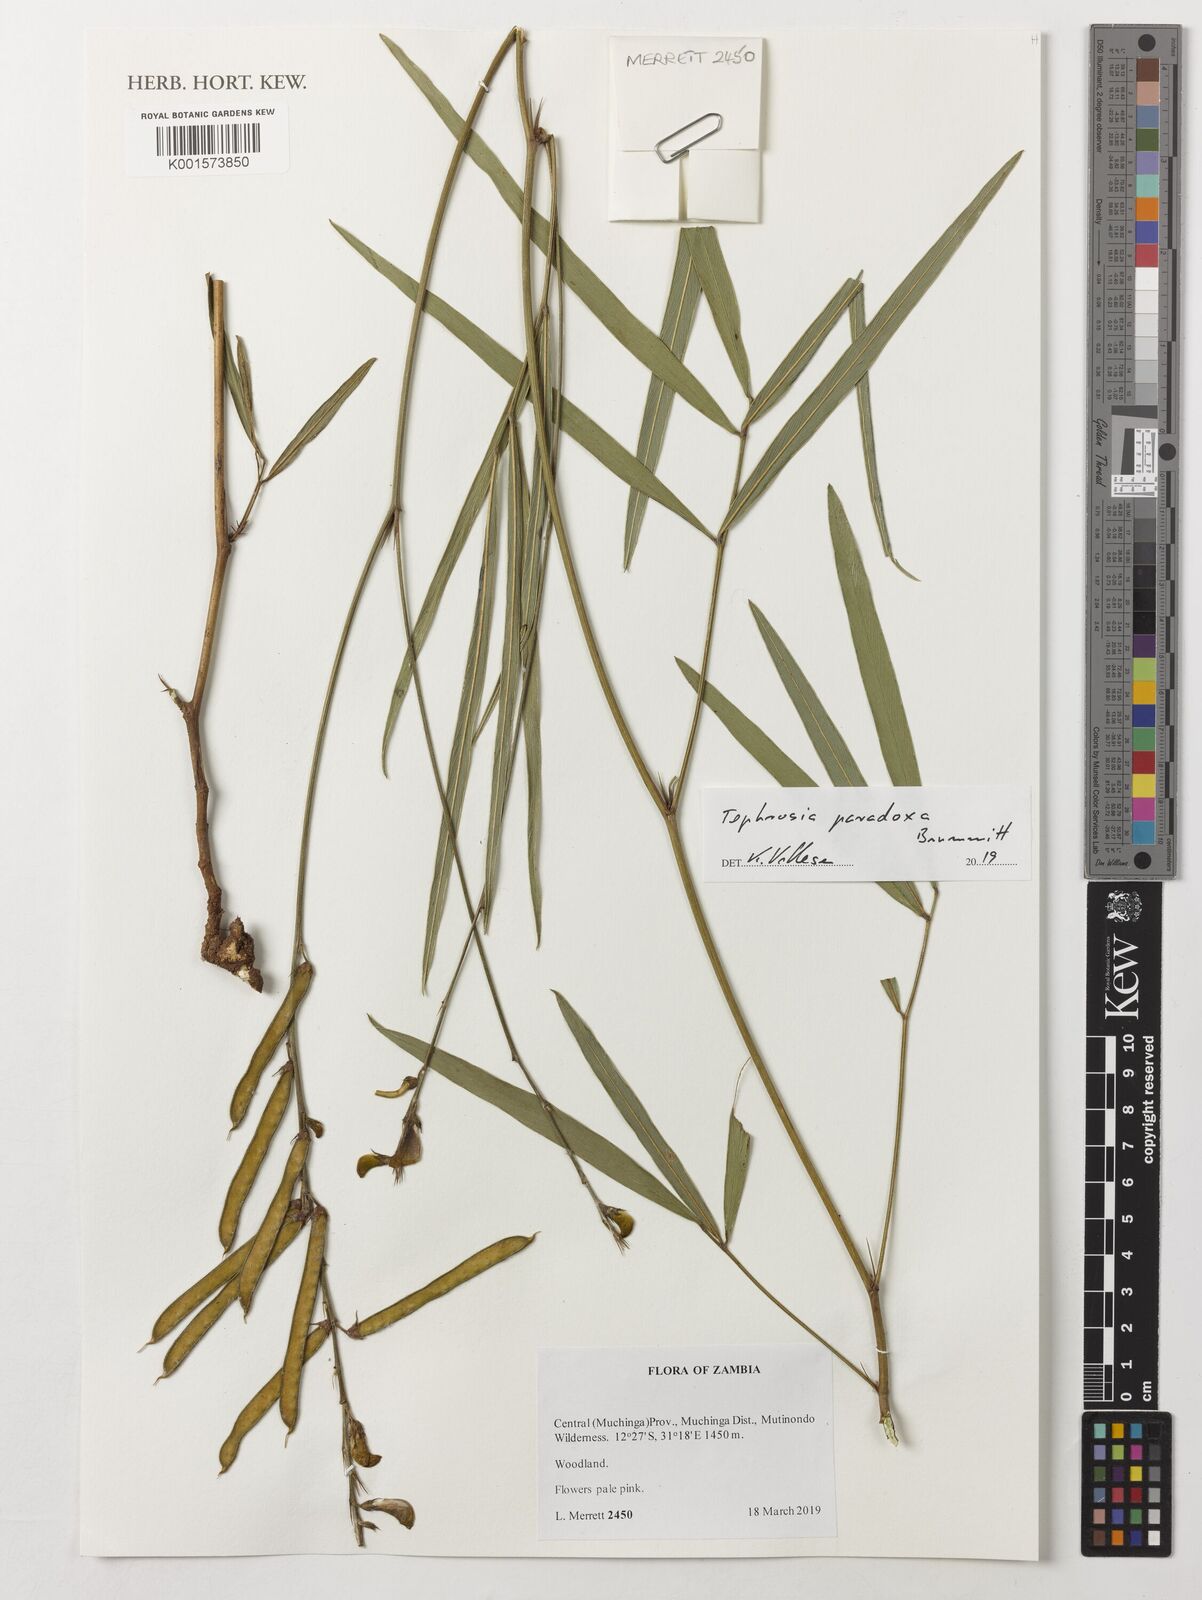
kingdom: Plantae
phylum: Tracheophyta
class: Magnoliopsida
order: Fabales
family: Fabaceae
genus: Tephrosia
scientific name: Tephrosia paradoxa
